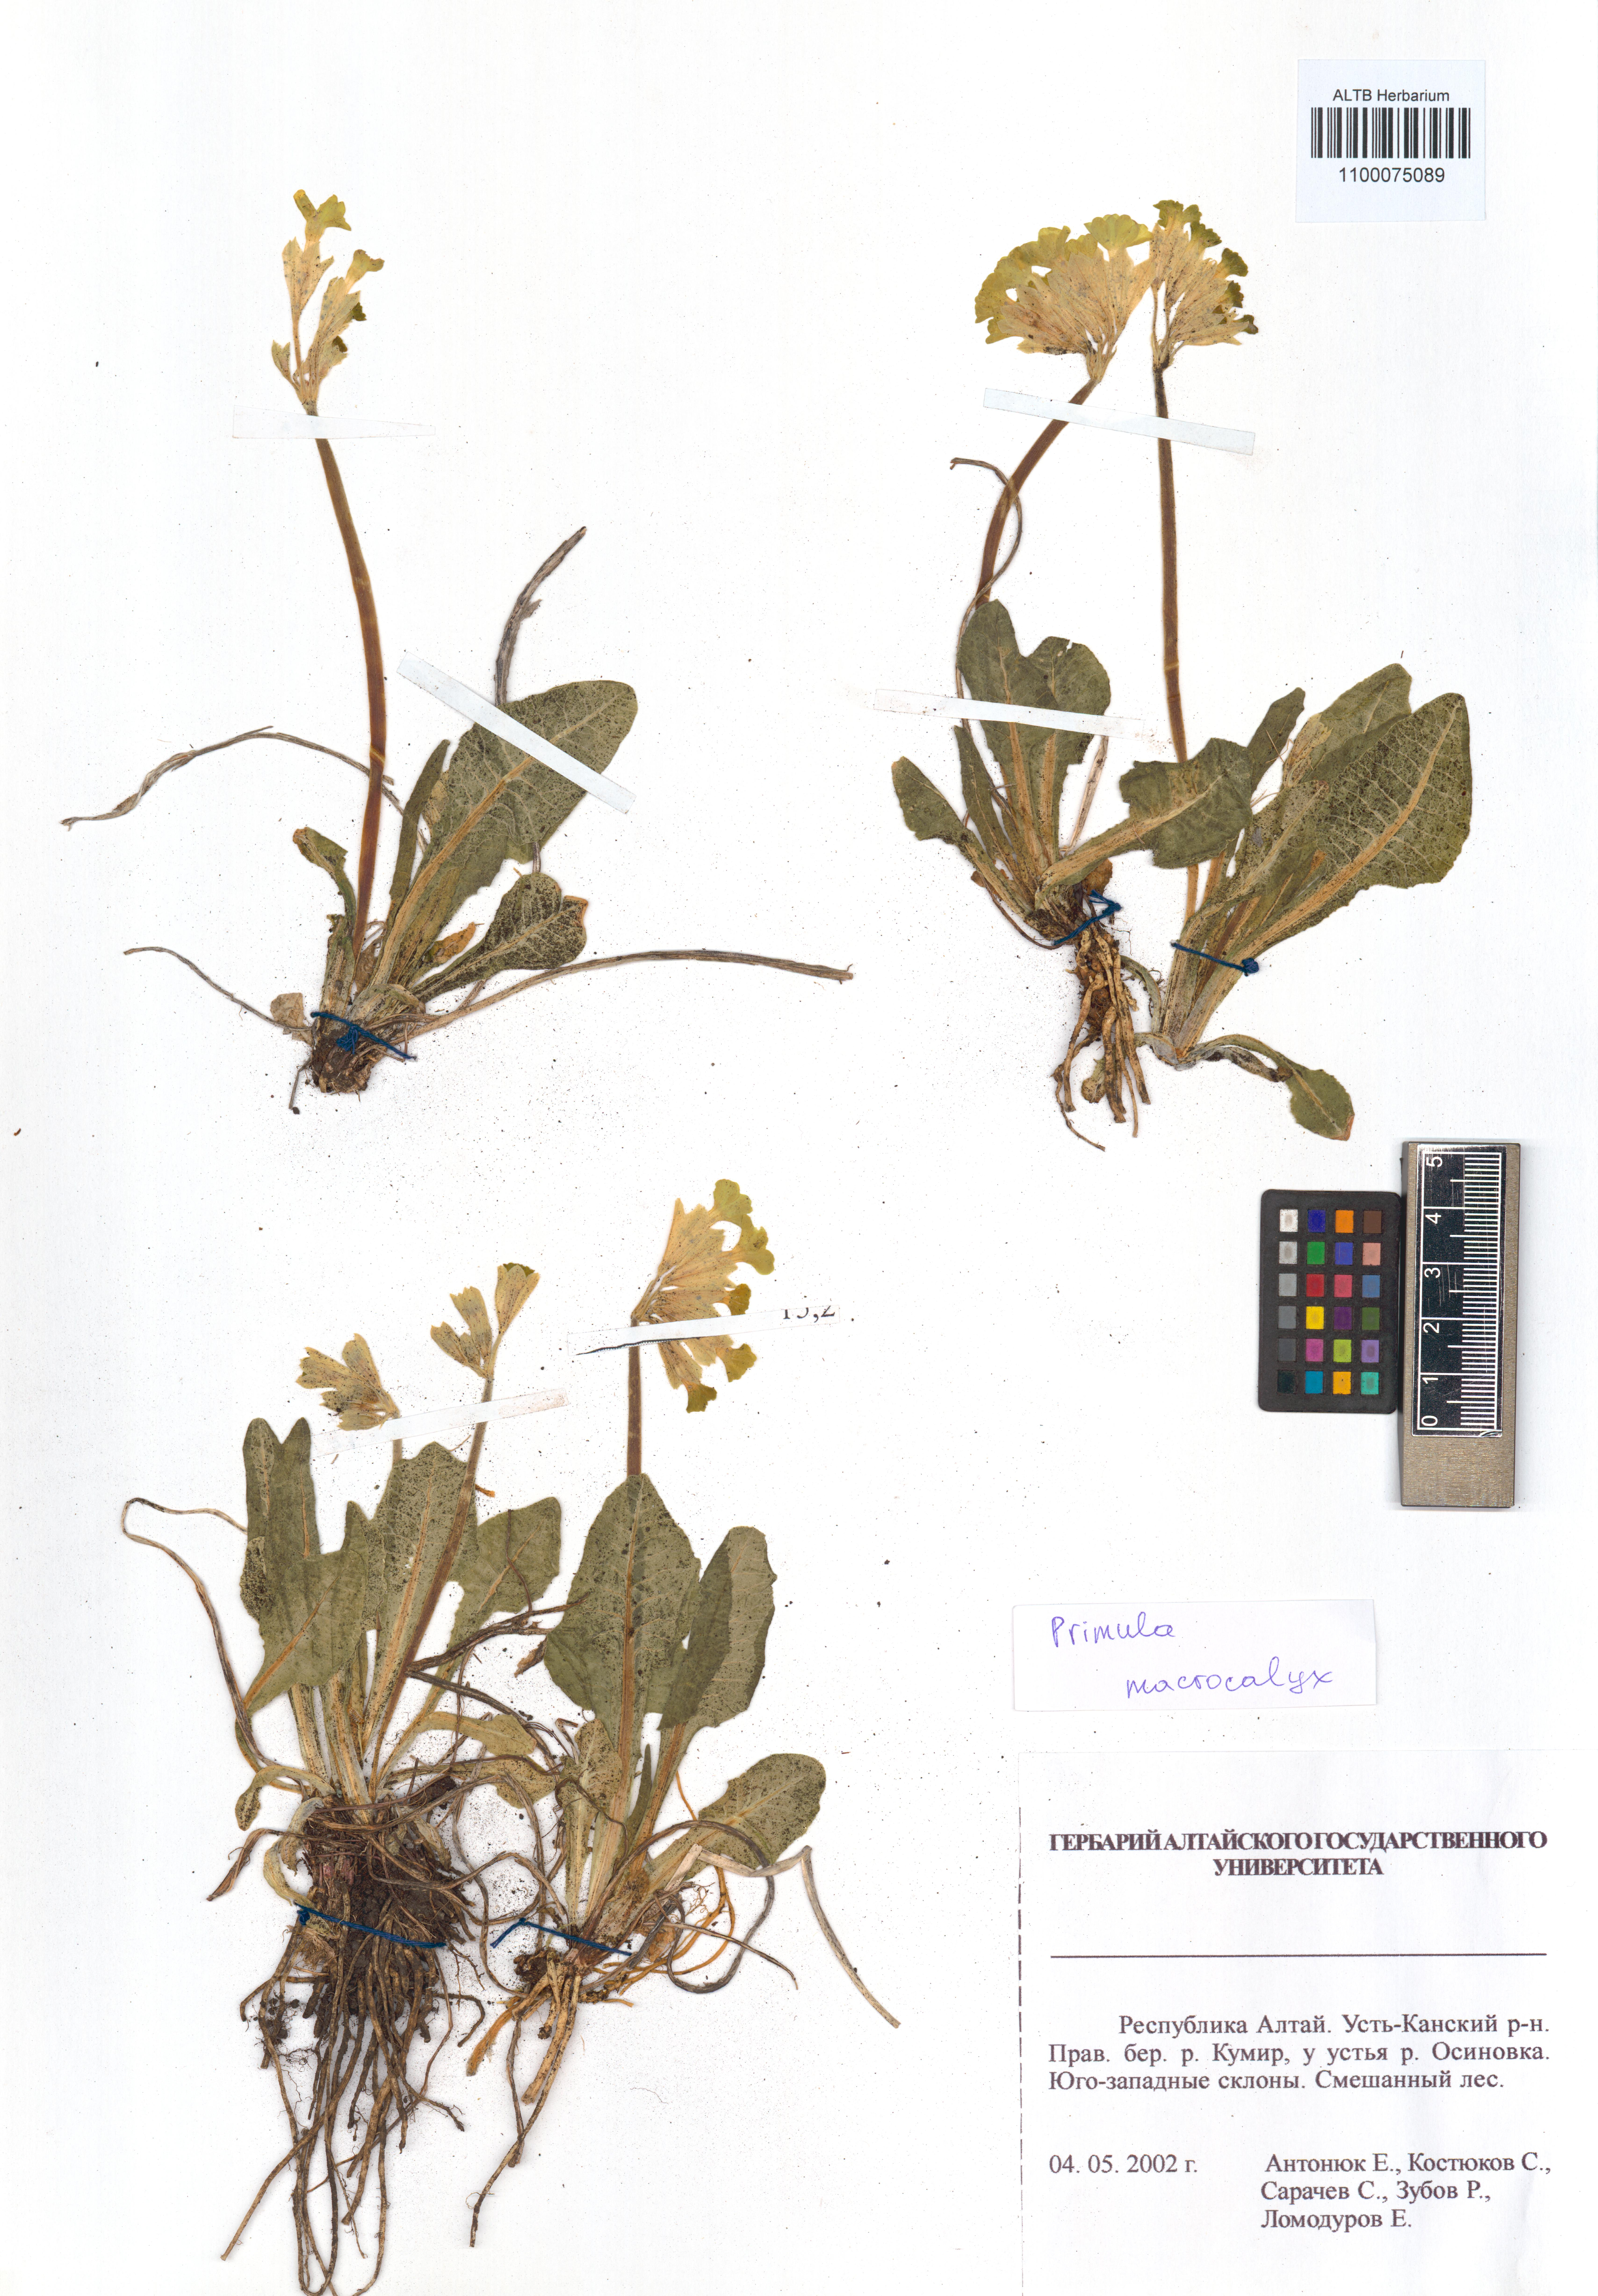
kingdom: Plantae
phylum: Tracheophyta
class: Magnoliopsida
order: Ericales
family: Primulaceae
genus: Primula
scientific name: Primula veris
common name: Cowslip
